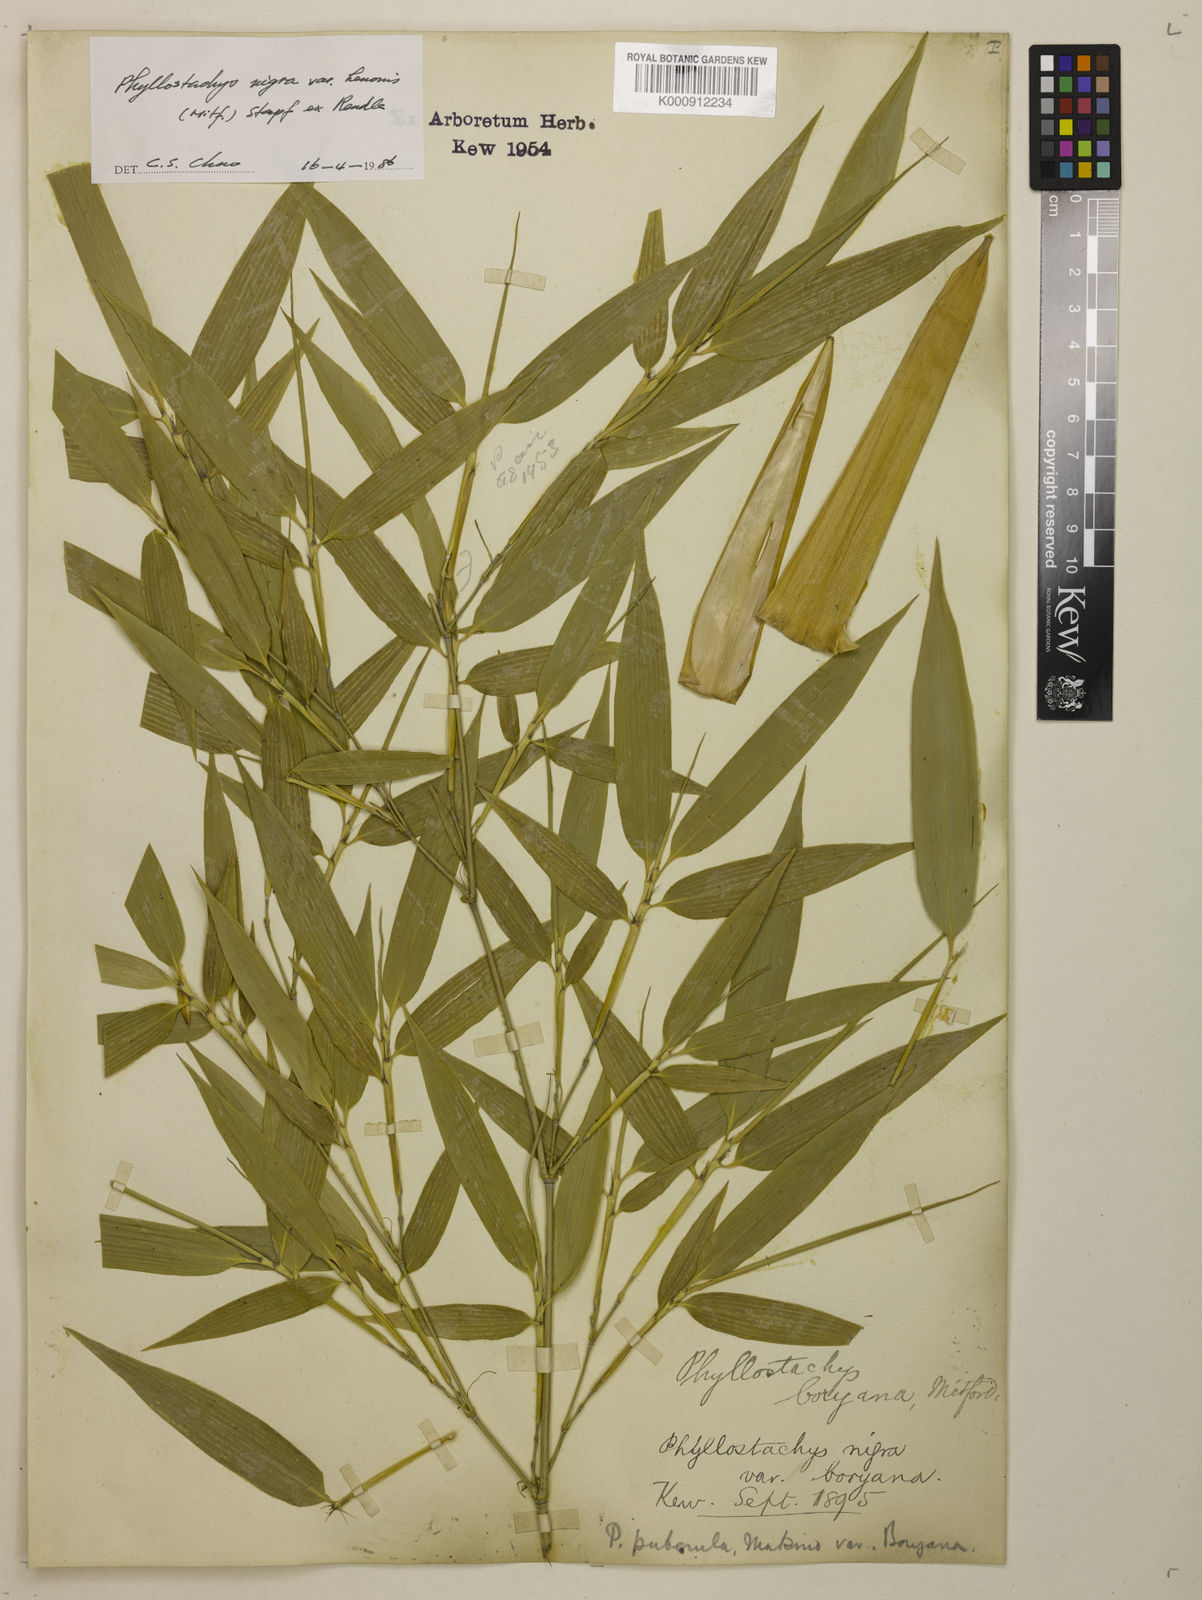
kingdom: Plantae
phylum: Tracheophyta
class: Liliopsida
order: Poales
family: Poaceae
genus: Phyllostachys
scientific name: Phyllostachys nigra
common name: Black bamboo
